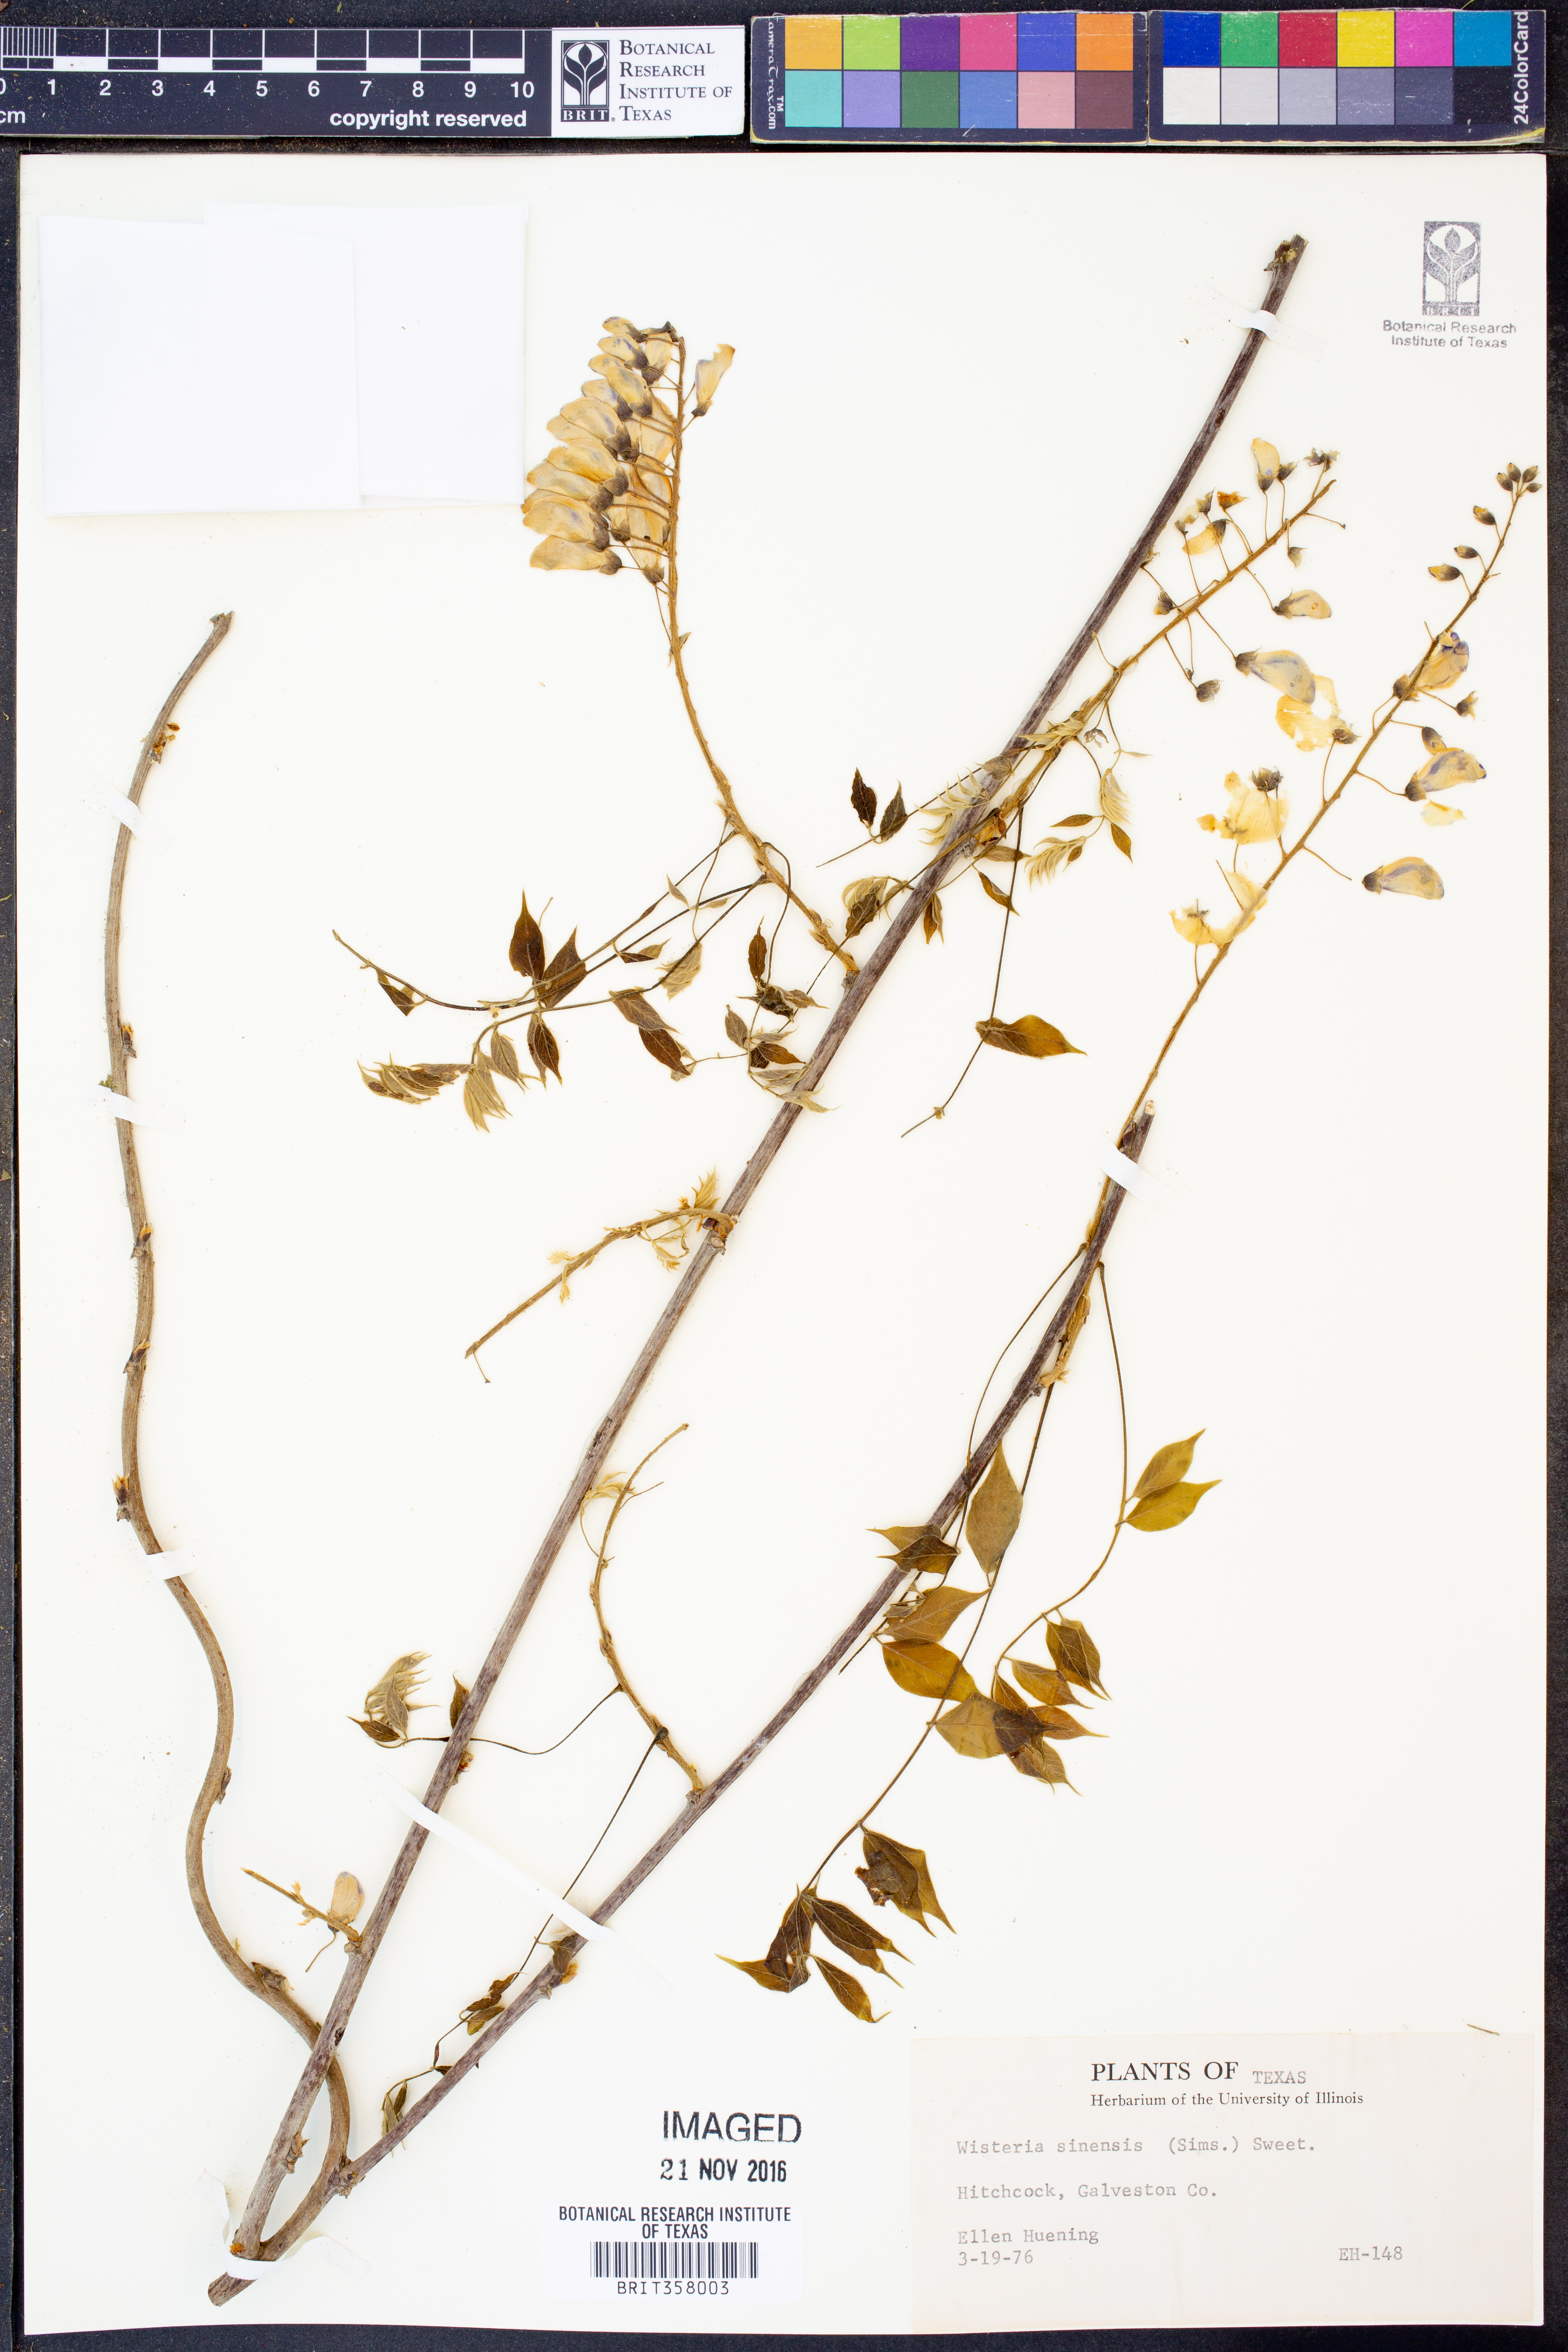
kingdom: Plantae
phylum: Tracheophyta
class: Magnoliopsida
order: Fabales
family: Fabaceae
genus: Wisteria
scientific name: Wisteria sinensis
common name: Chinese wisteria
